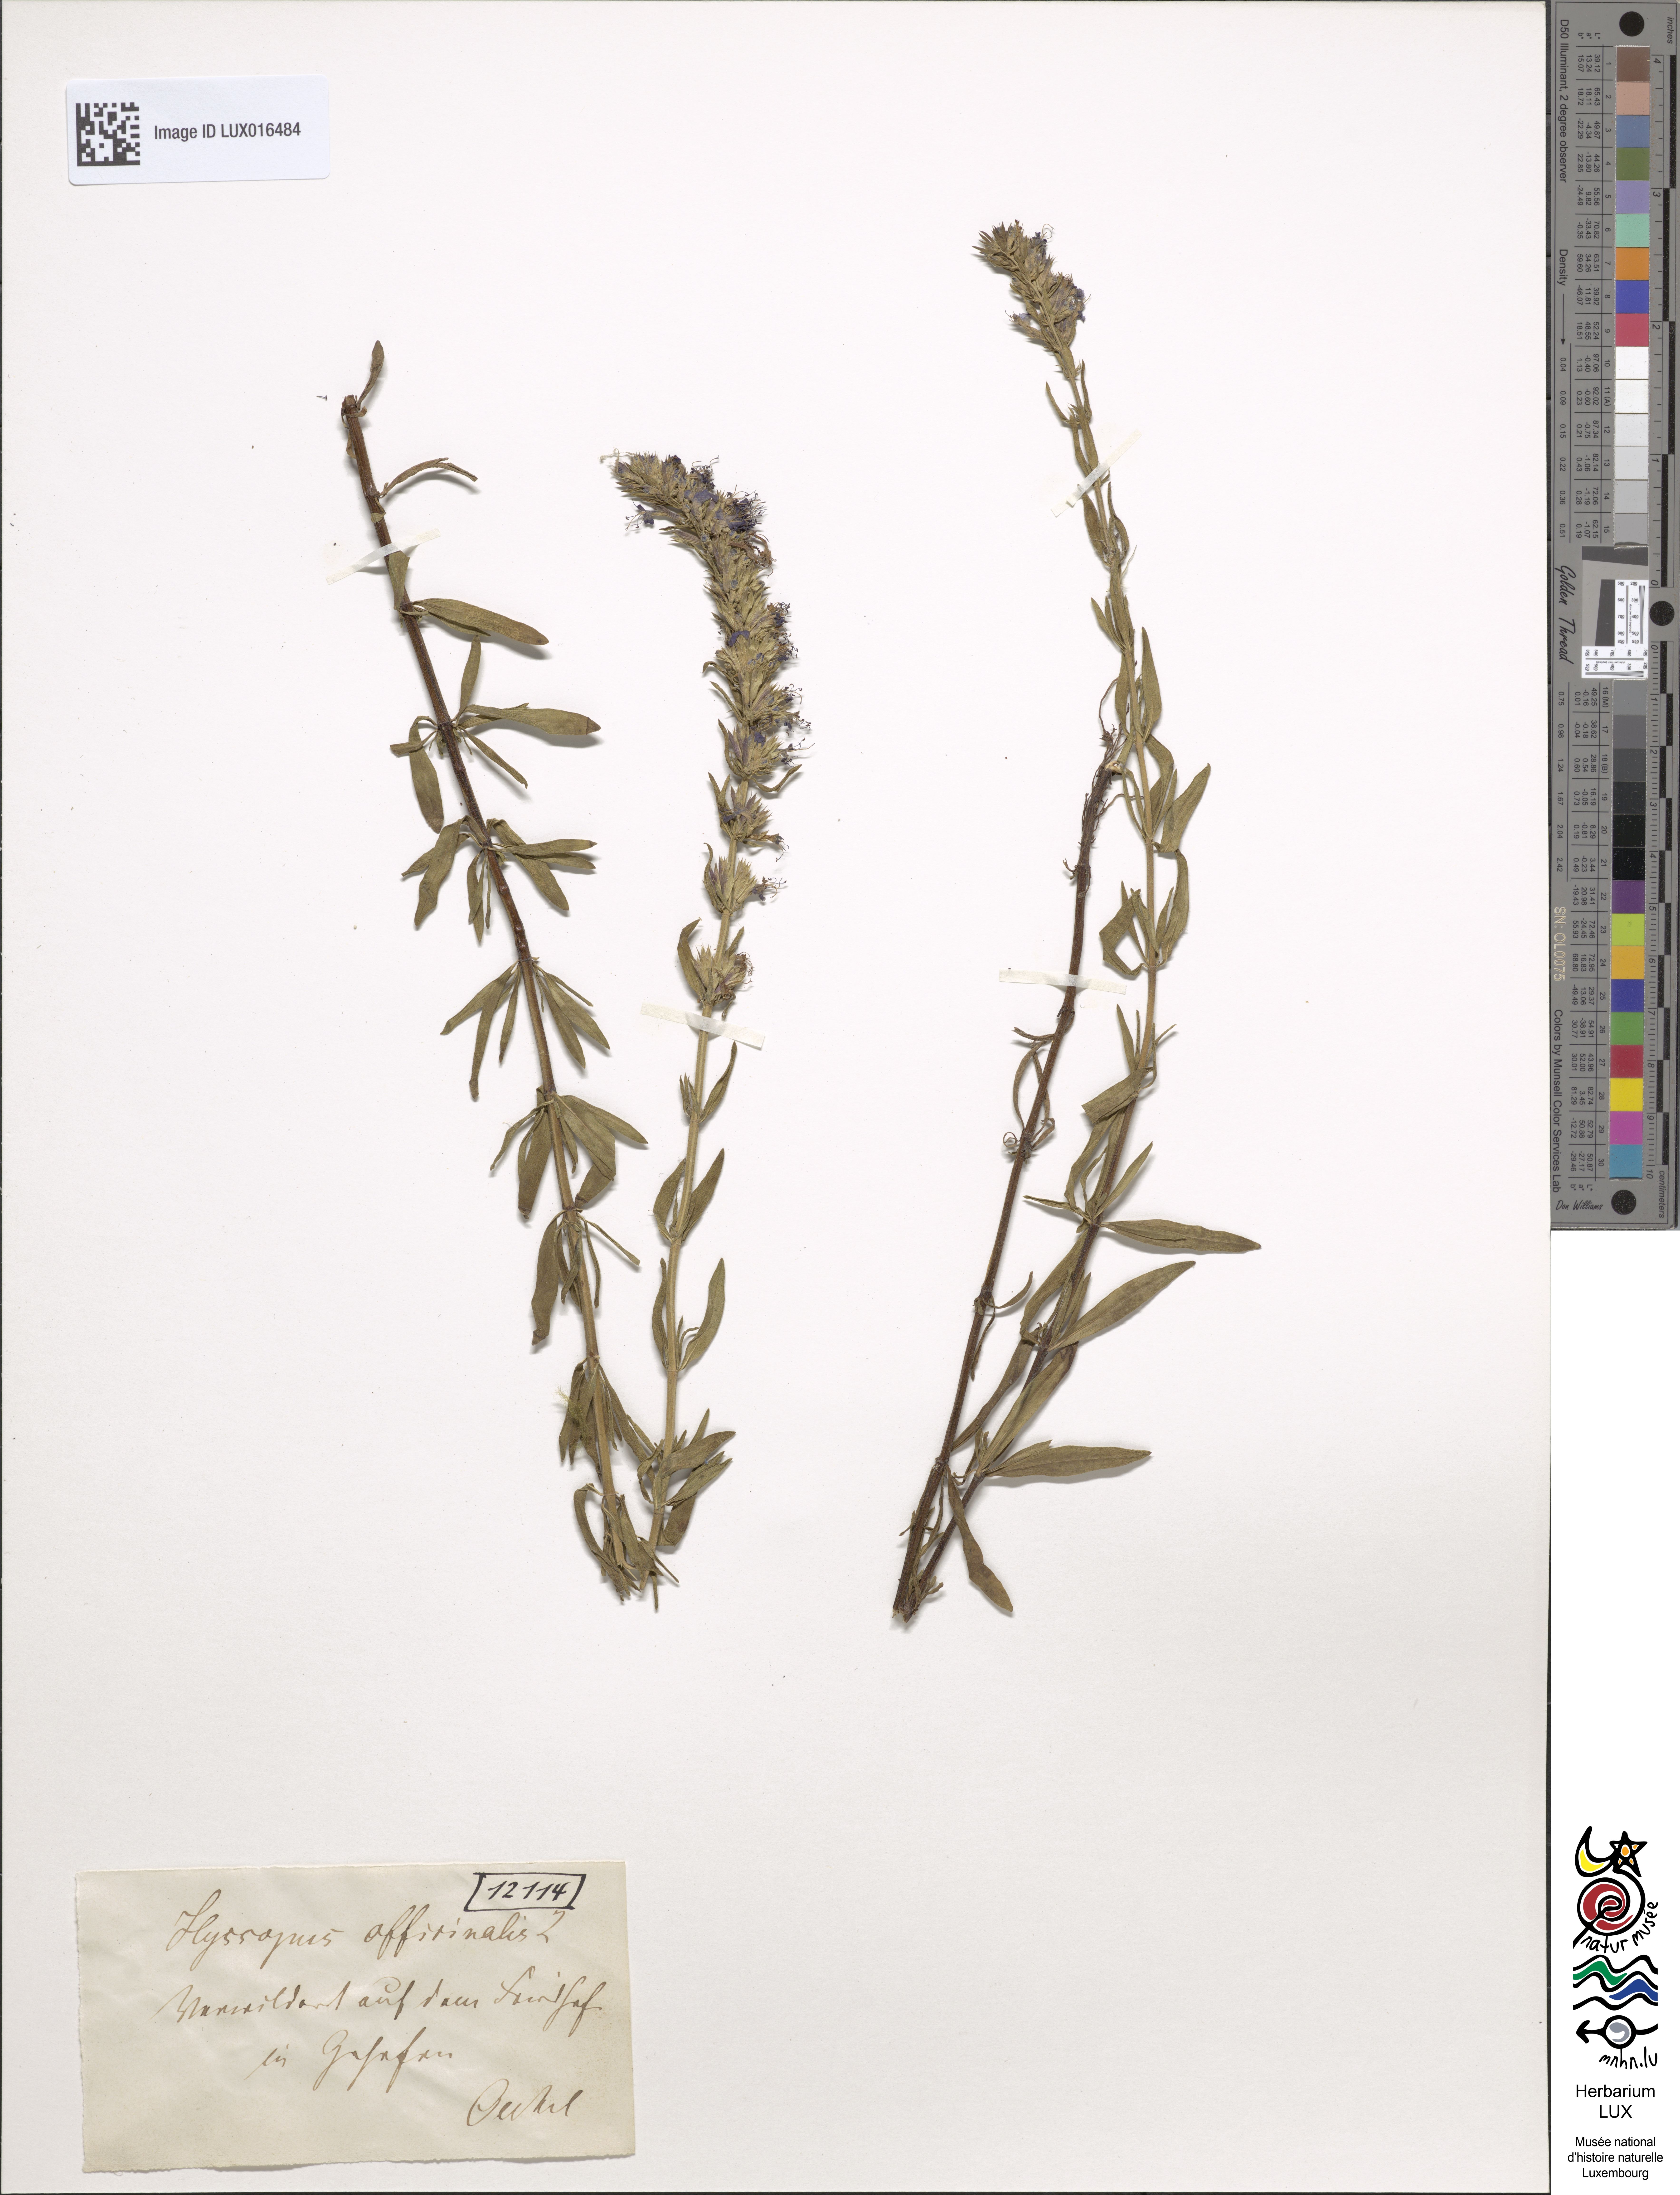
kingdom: Plantae
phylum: Tracheophyta
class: Magnoliopsida
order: Lamiales
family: Lamiaceae
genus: Hyssopus
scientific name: Hyssopus officinalis
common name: Hyssop
